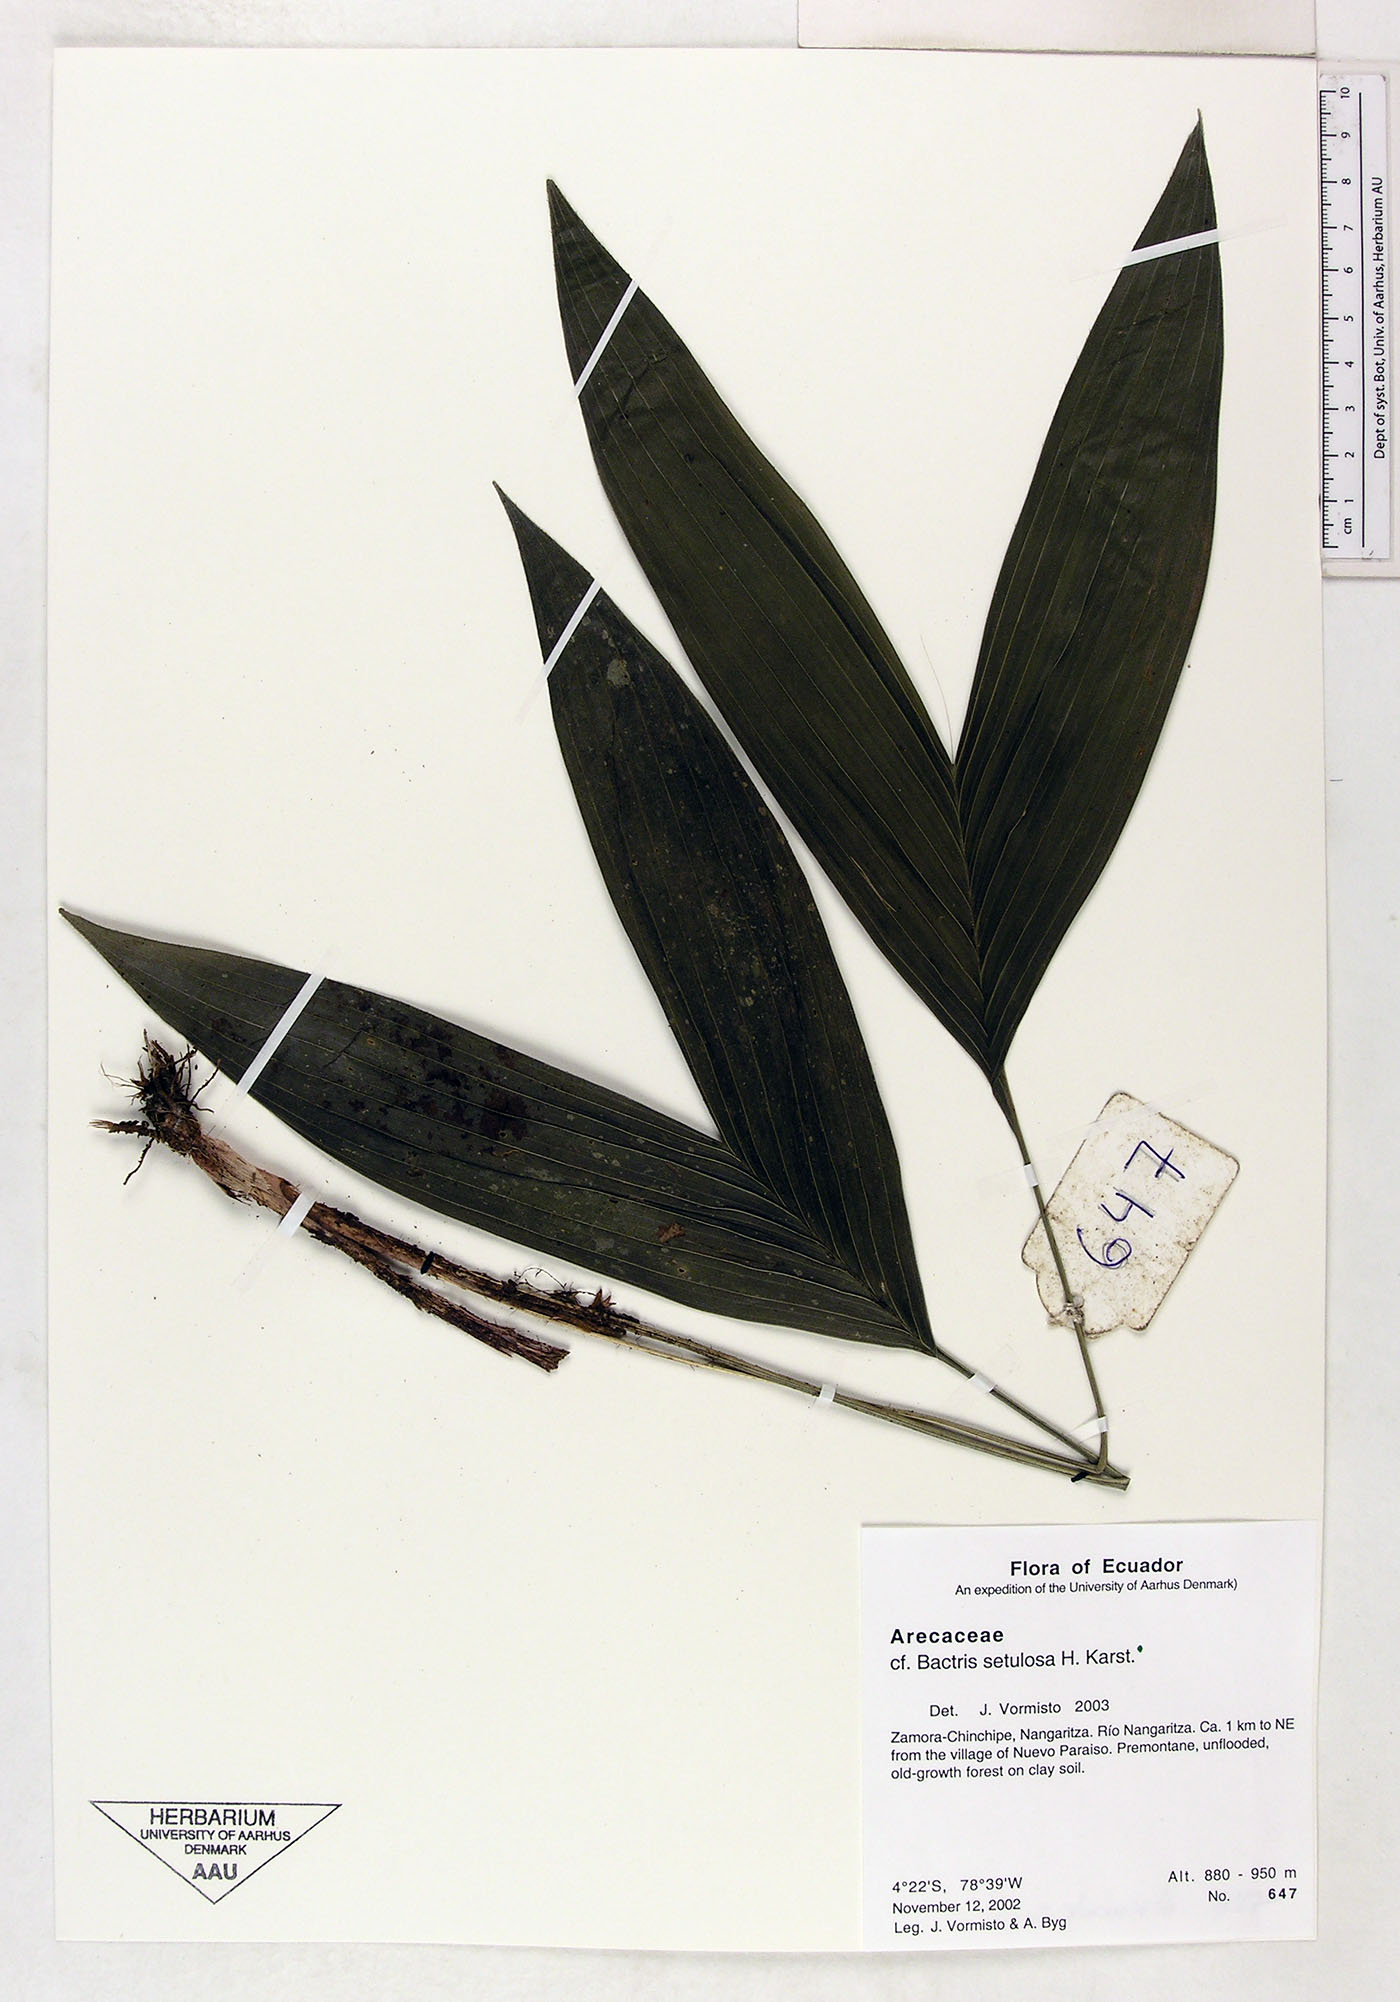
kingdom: Plantae
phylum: Tracheophyta
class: Liliopsida
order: Arecales
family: Arecaceae
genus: Bactris
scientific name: Bactris setulosa
